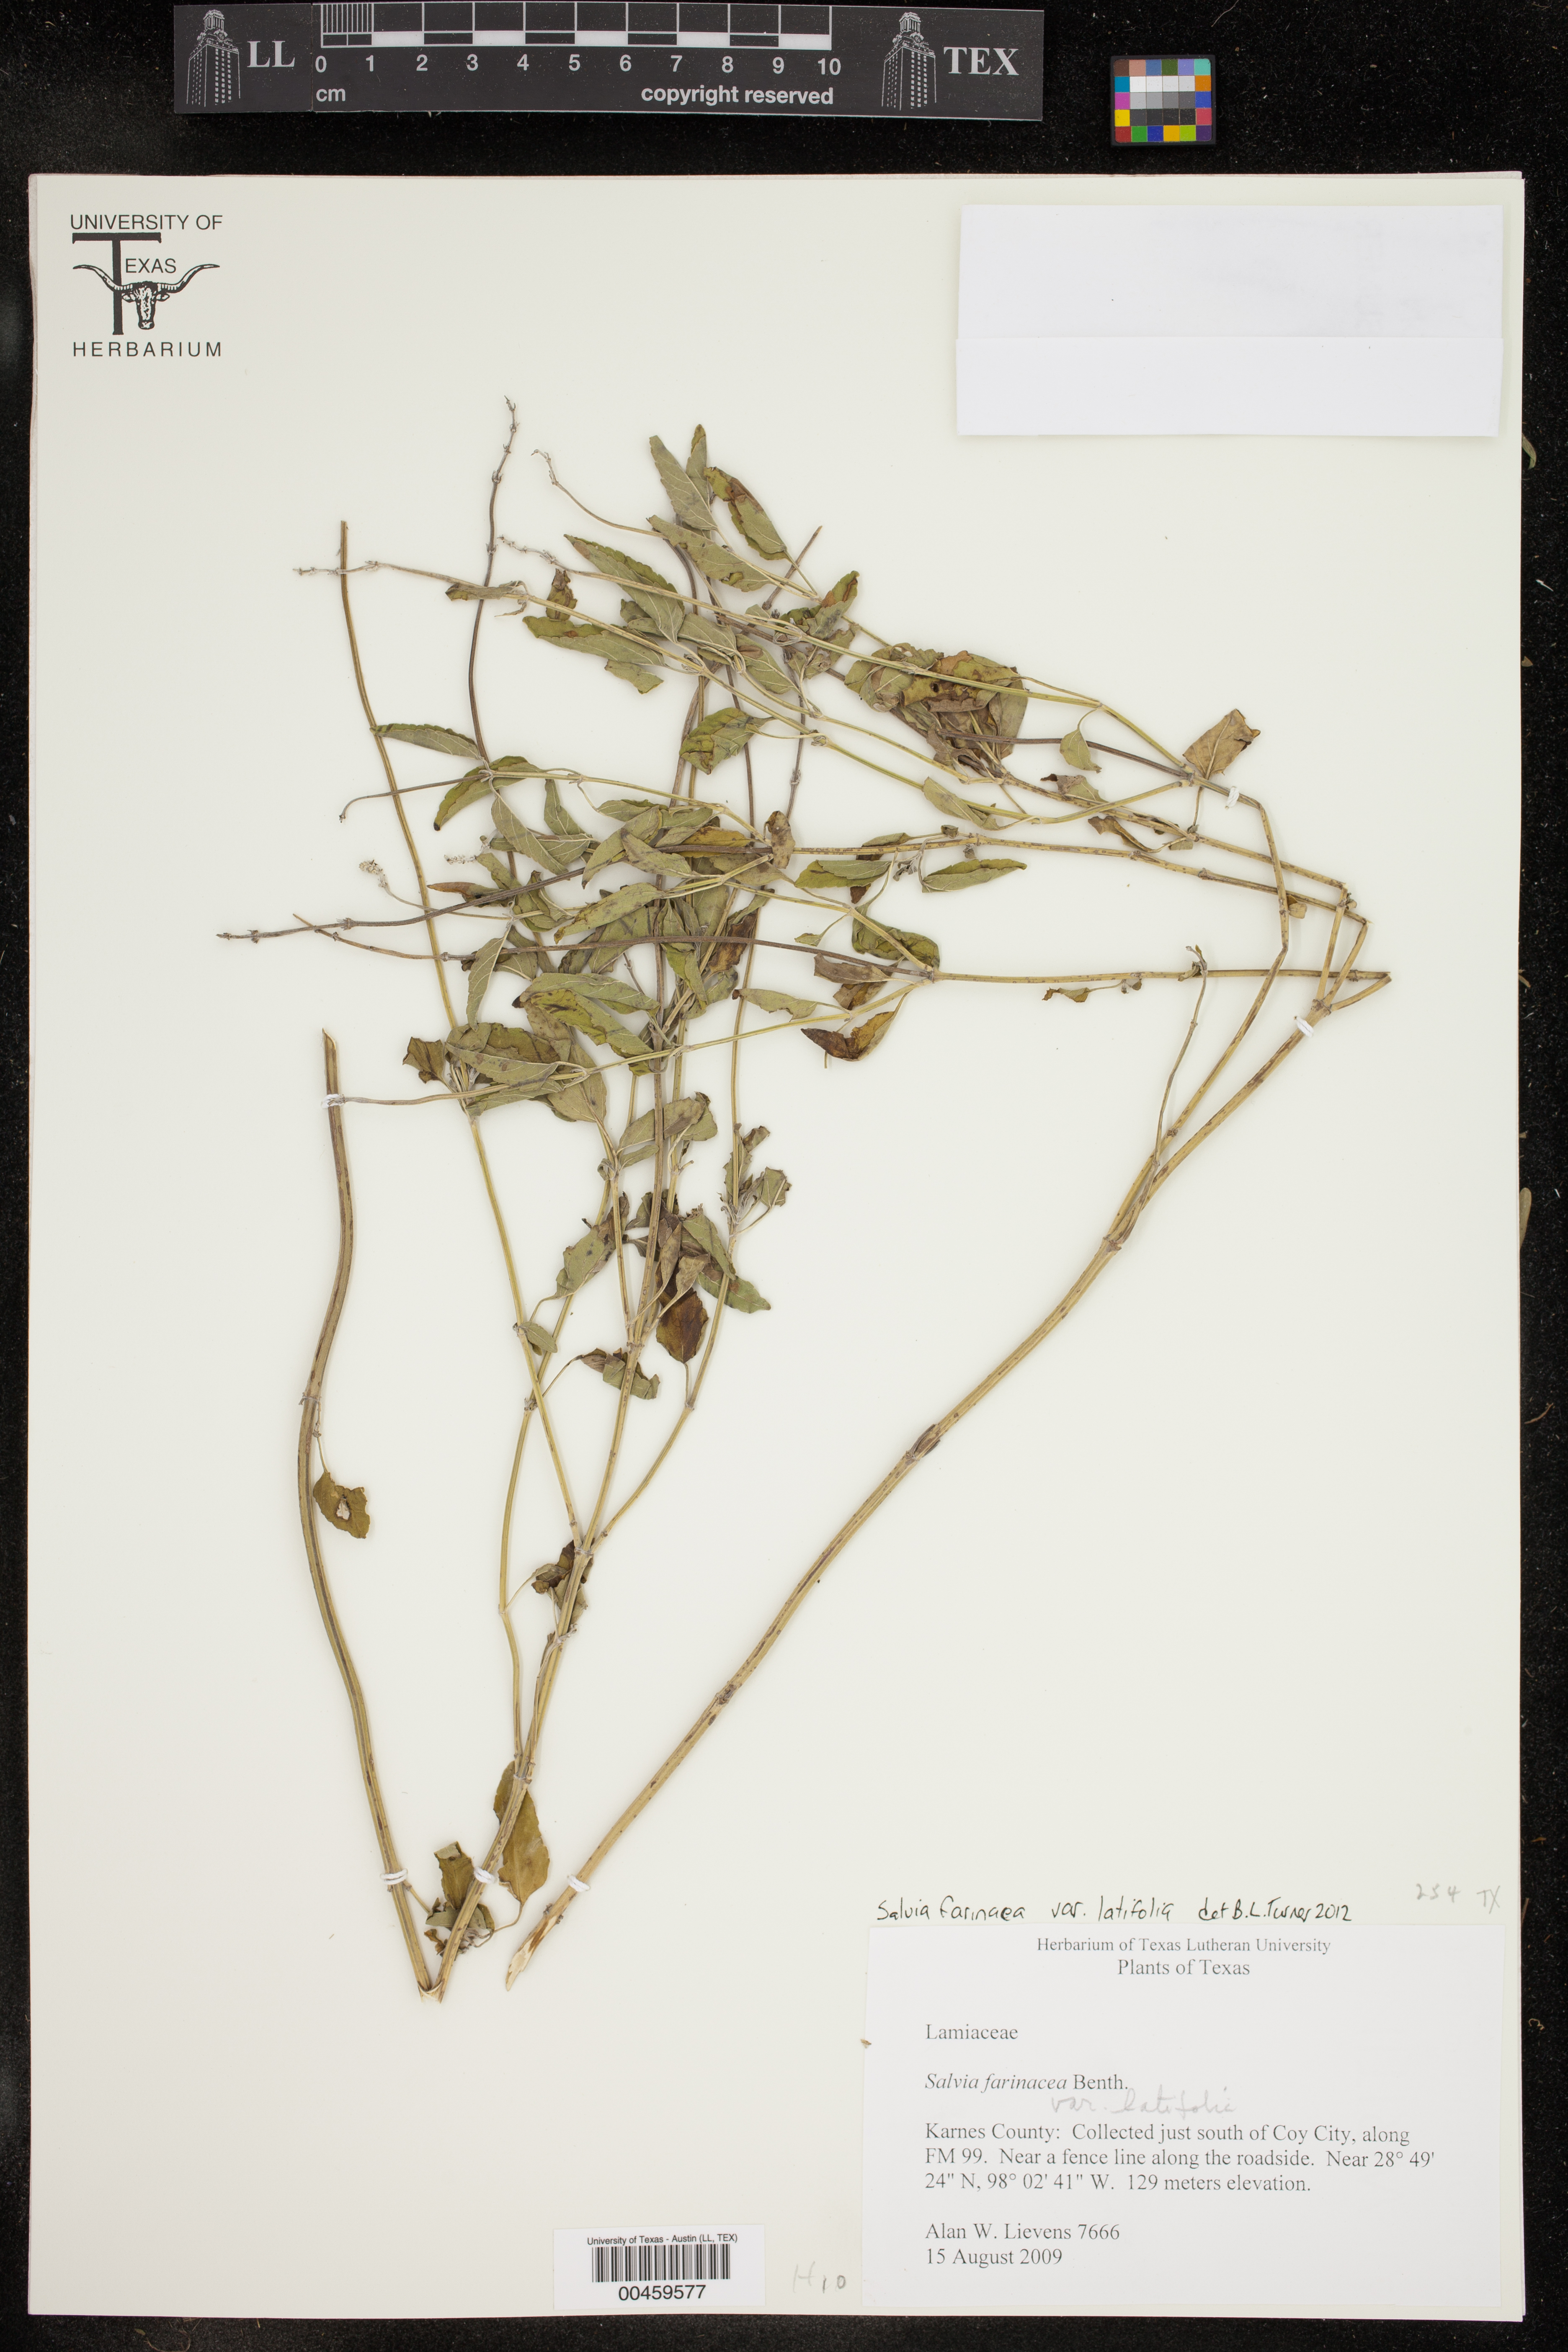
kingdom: Plantae
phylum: Tracheophyta
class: Magnoliopsida
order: Lamiales
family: Lamiaceae
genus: Salvia
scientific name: Salvia farinacea
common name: Mealy sage
